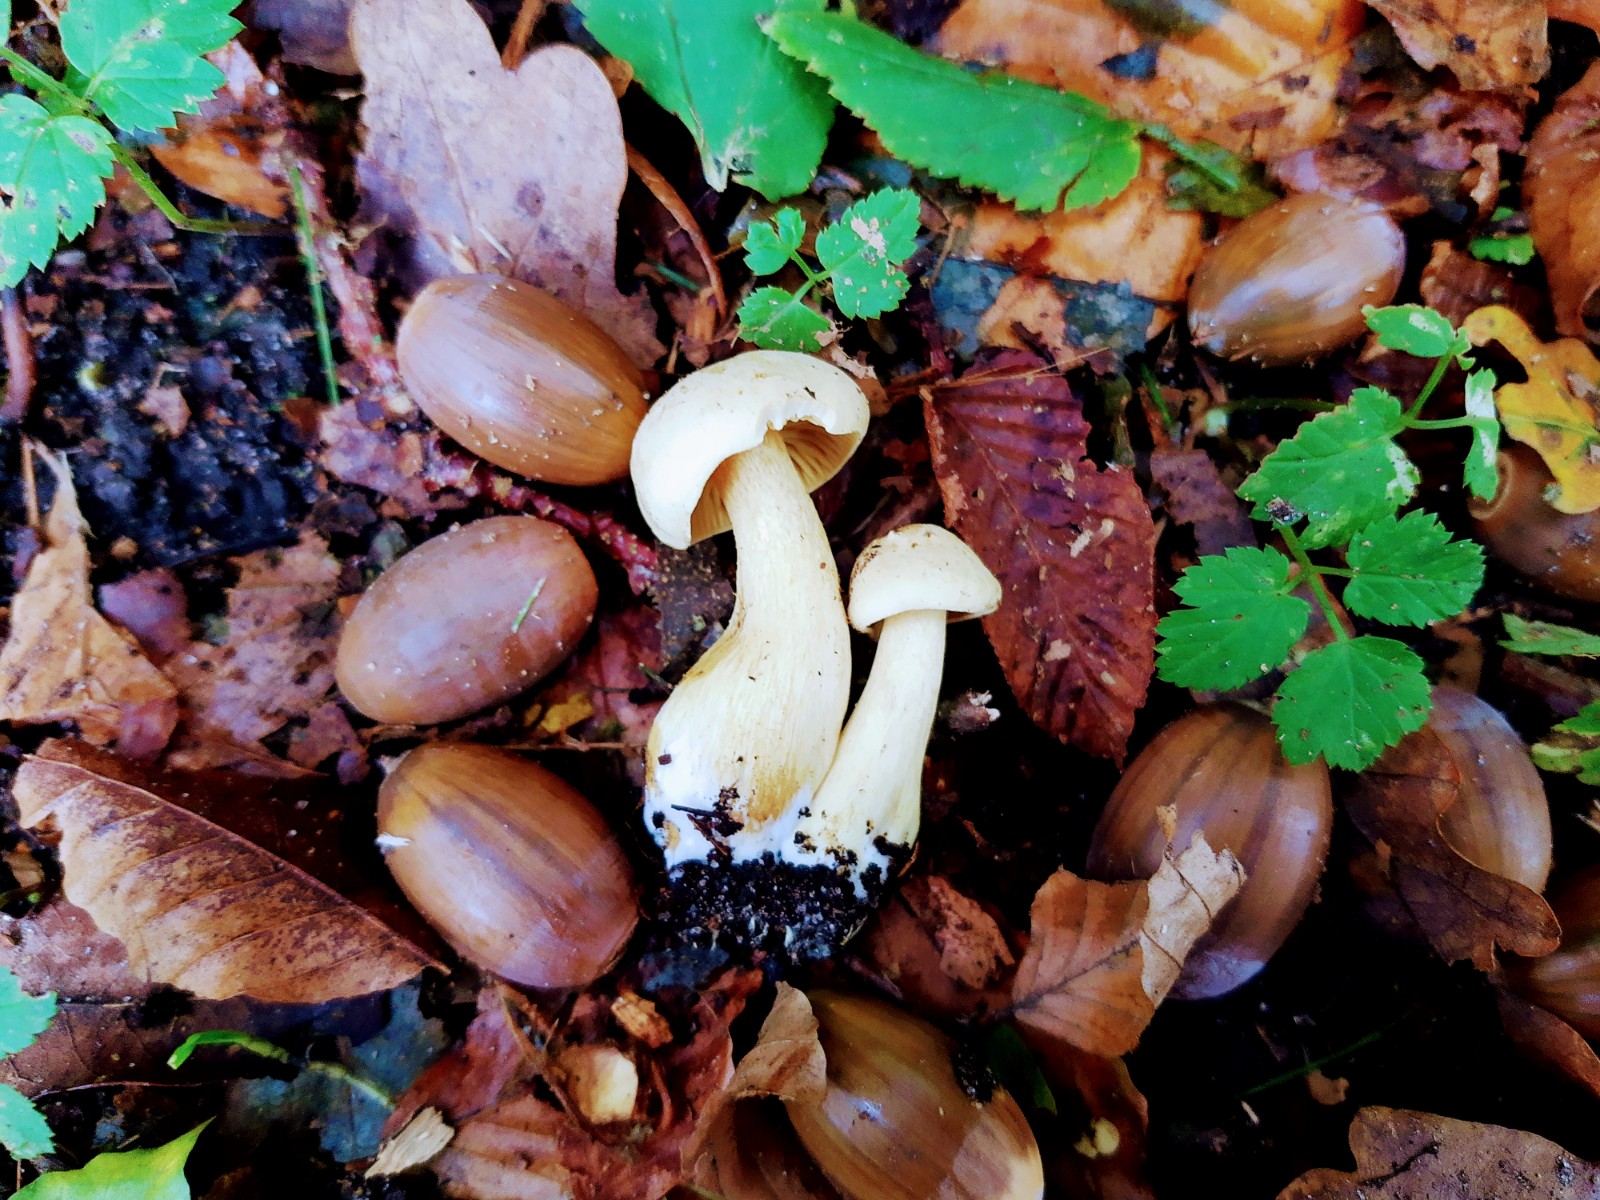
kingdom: Fungi
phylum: Basidiomycota
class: Agaricomycetes
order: Agaricales
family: Tricholomataceae
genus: Tricholoma
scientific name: Tricholoma sulphureum
